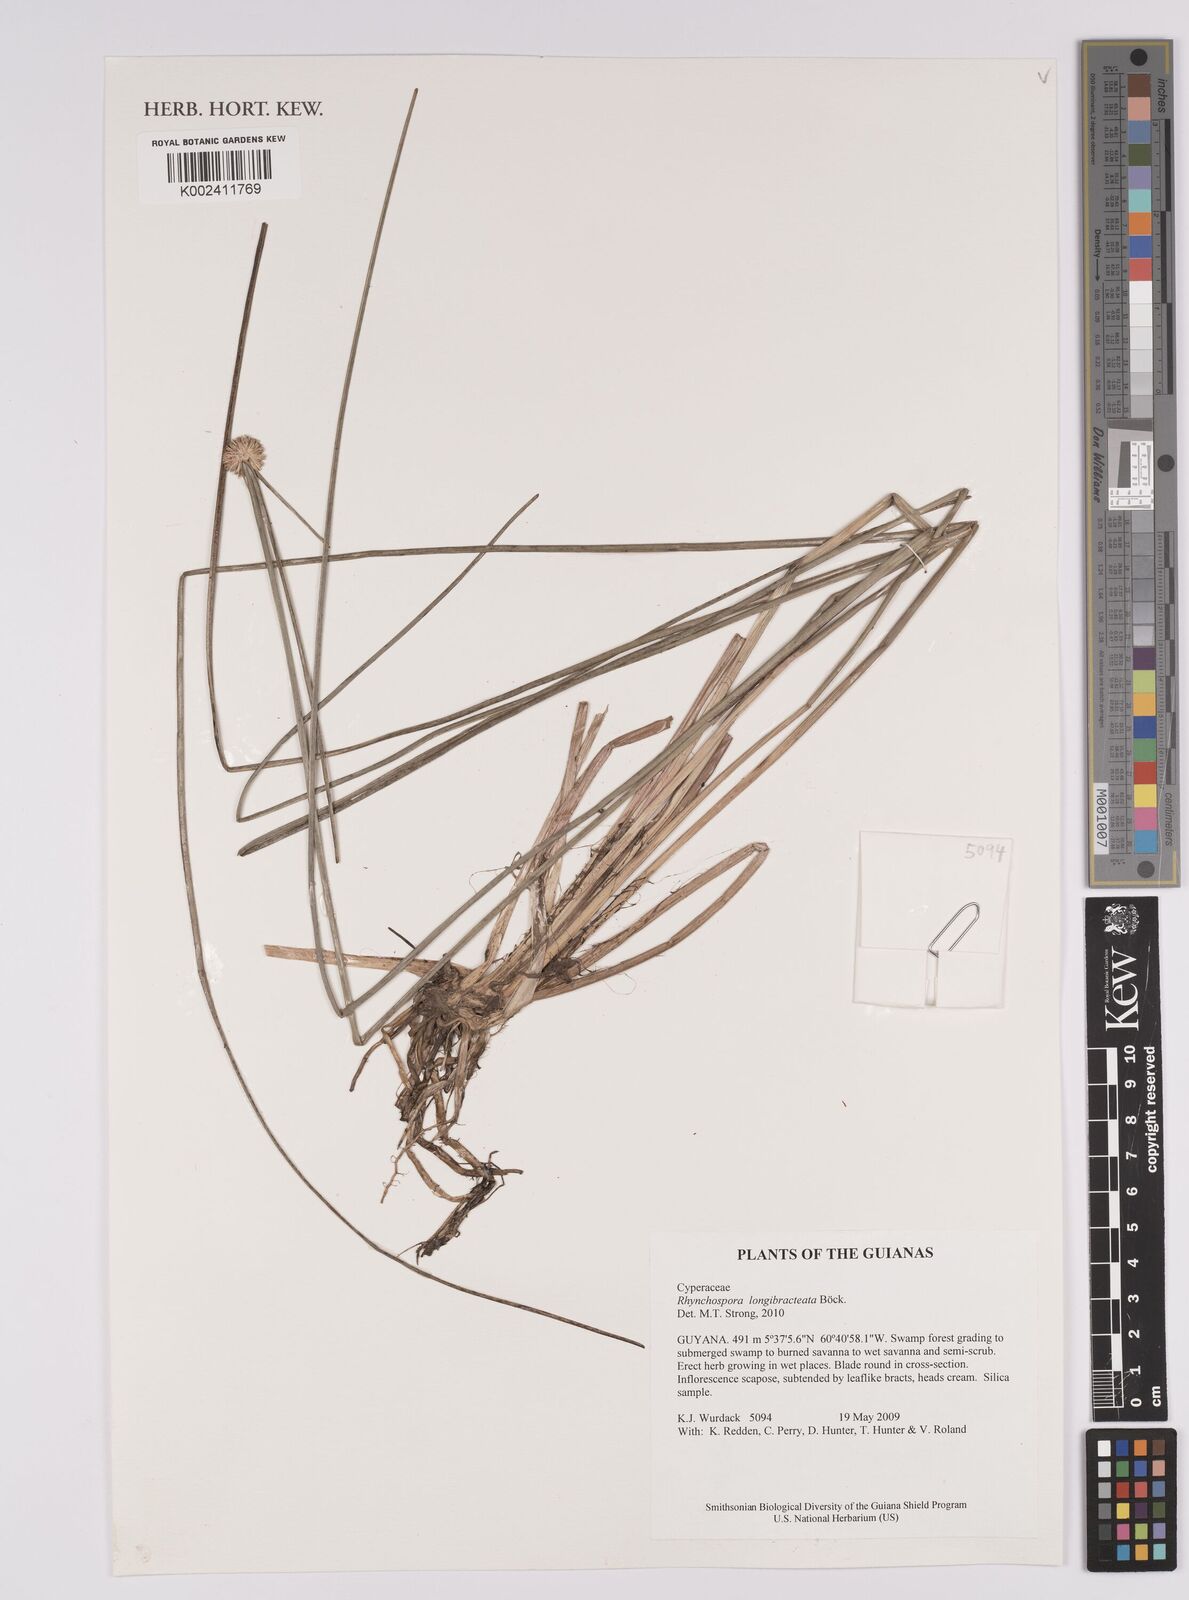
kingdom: Plantae
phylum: Tracheophyta
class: Liliopsida
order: Poales
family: Cyperaceae
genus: Rhynchospora
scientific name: Rhynchospora longibracteata
